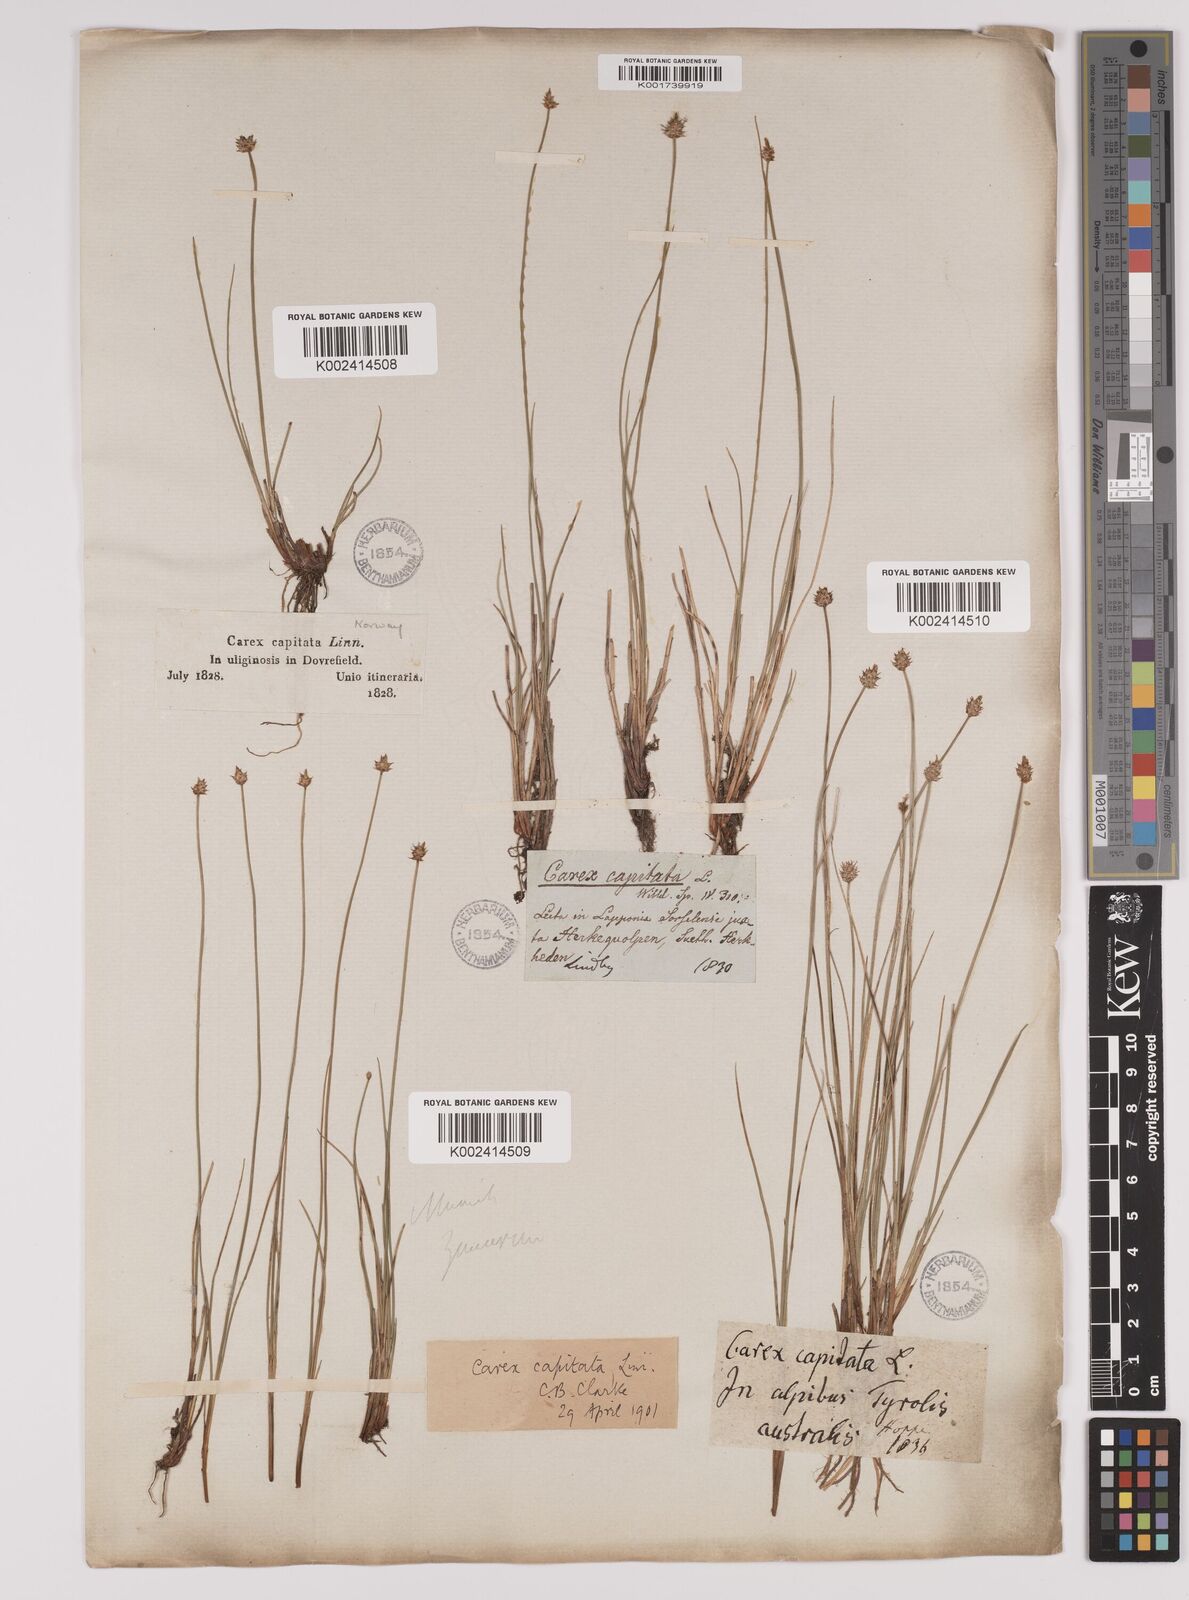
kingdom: Plantae
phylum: Tracheophyta
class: Liliopsida
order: Poales
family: Cyperaceae
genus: Carex
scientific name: Carex capitata
